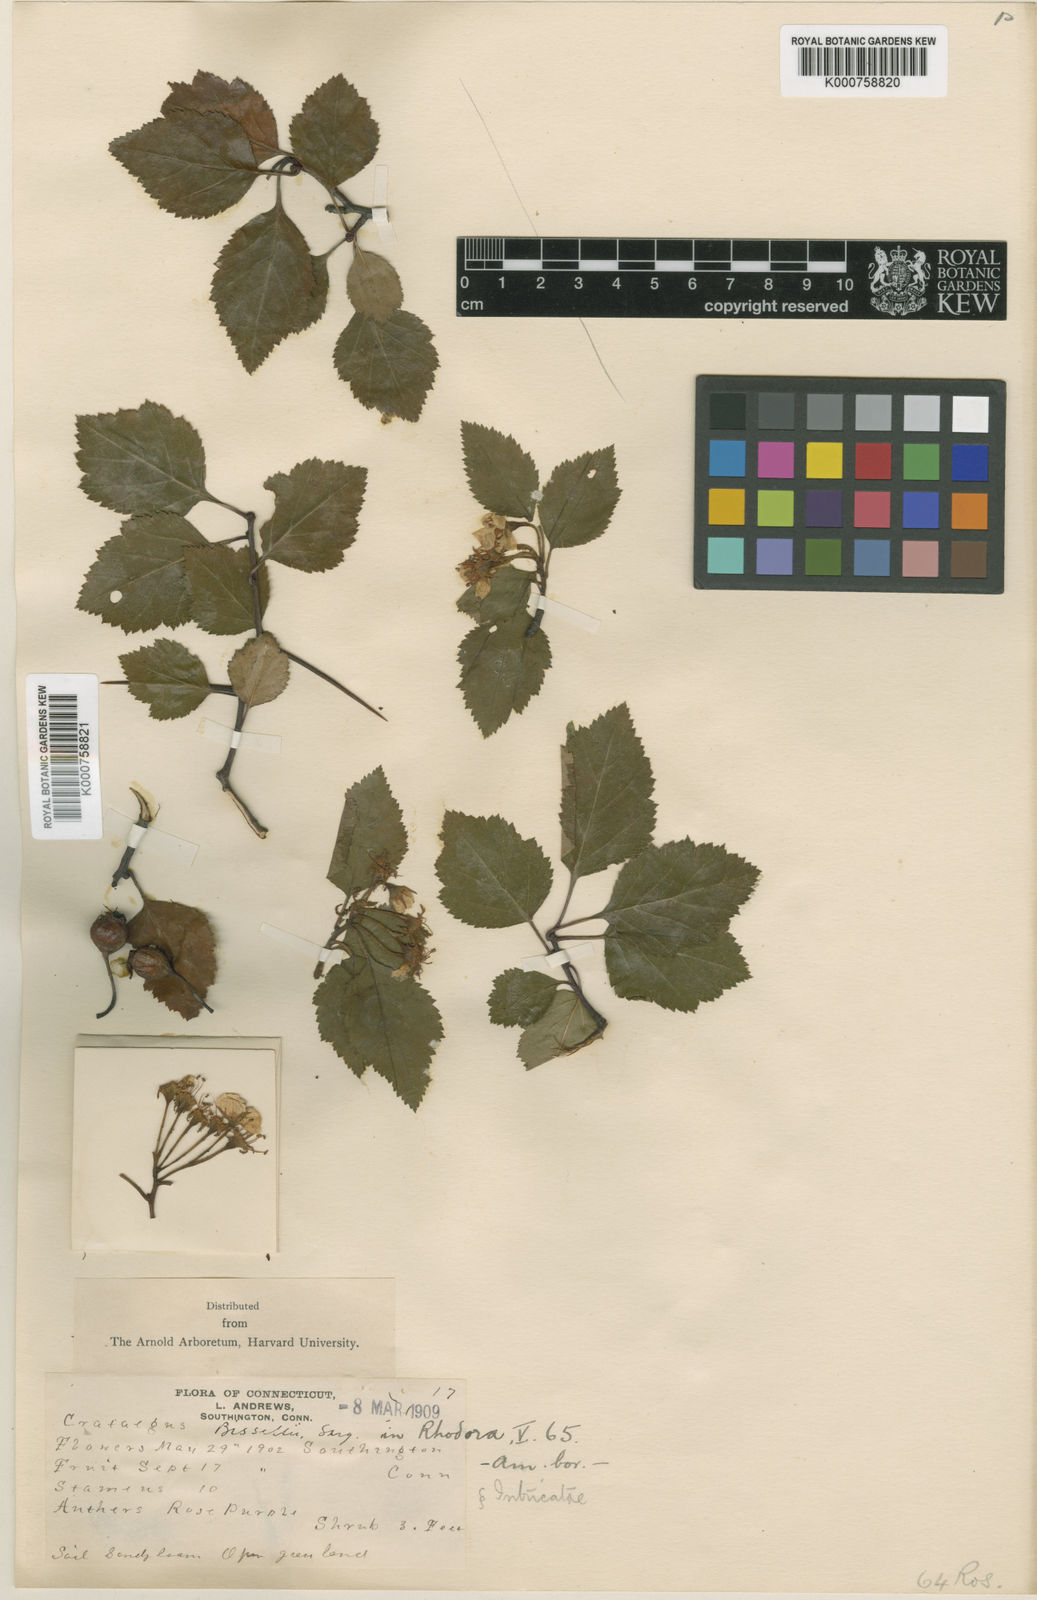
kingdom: Plantae
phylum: Tracheophyta
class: Magnoliopsida
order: Rosales
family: Rosaceae
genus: Crataegus
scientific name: Crataegus intricata
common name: Biltmore hawthorn
